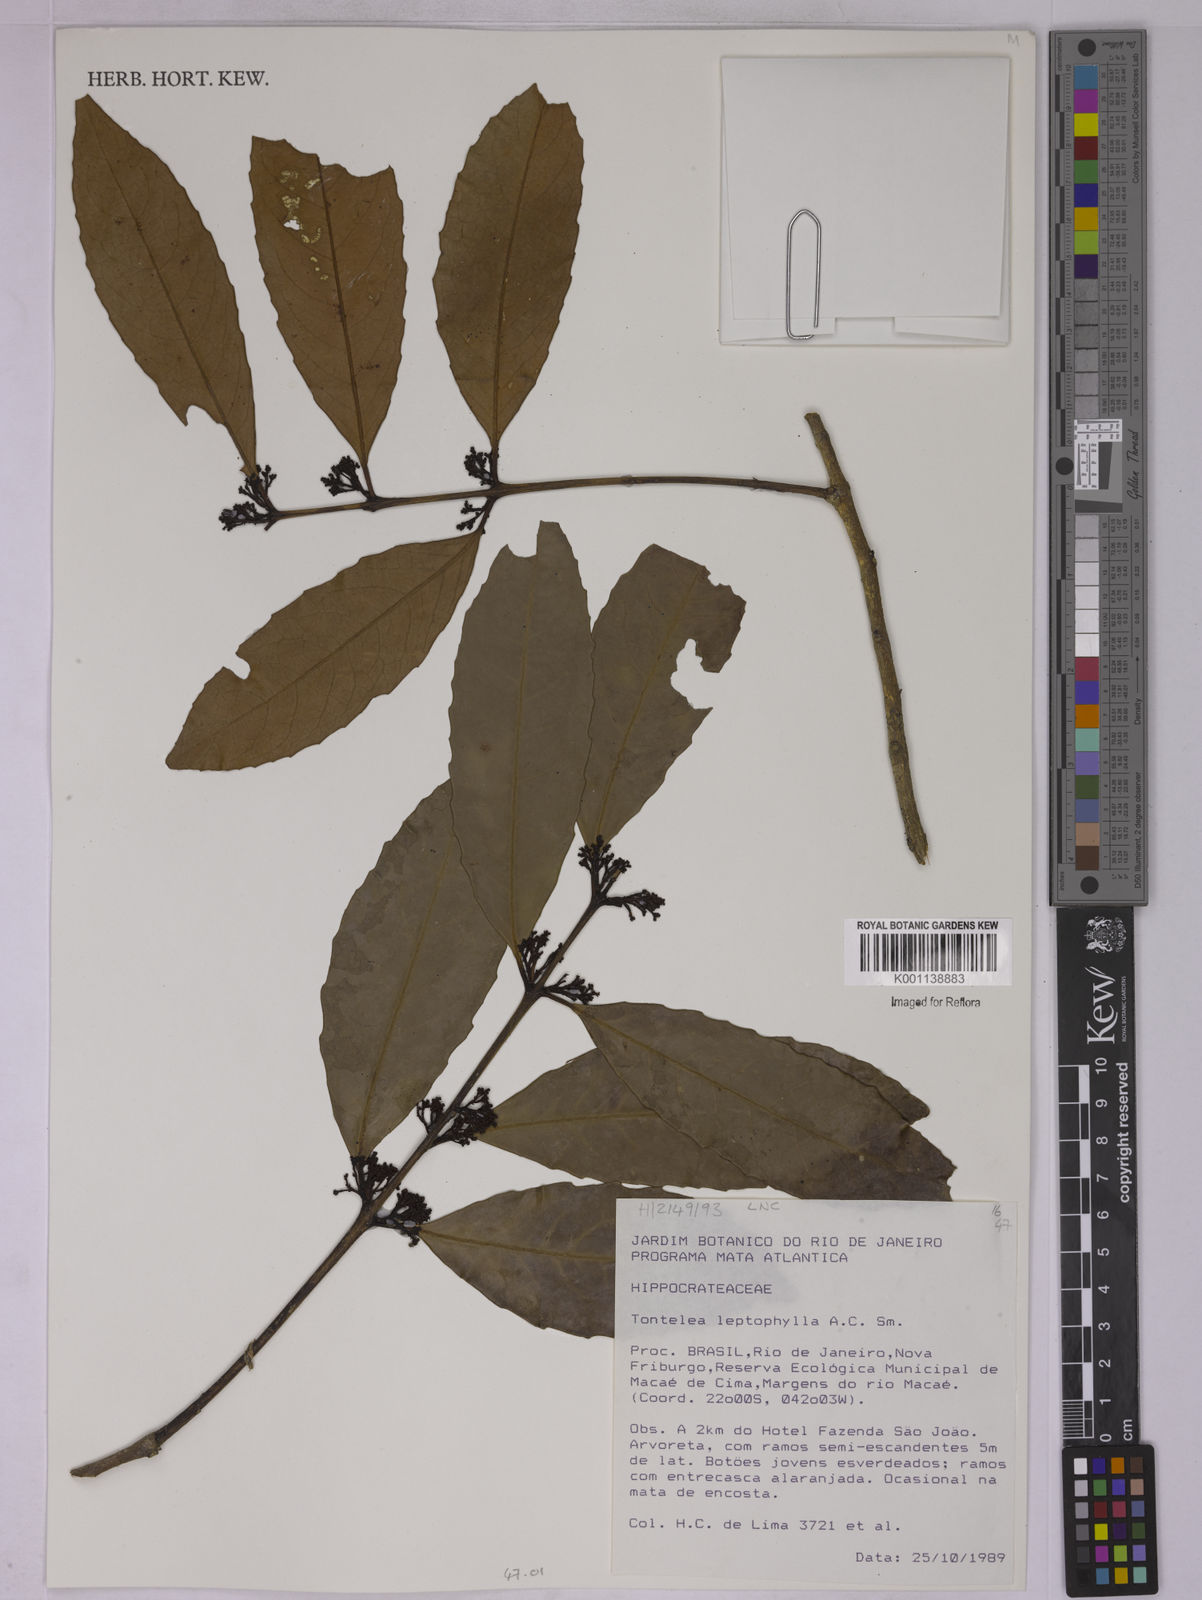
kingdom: Plantae
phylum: Tracheophyta
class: Magnoliopsida
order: Celastrales
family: Celastraceae
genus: Tontelea
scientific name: Tontelea leptophylla
